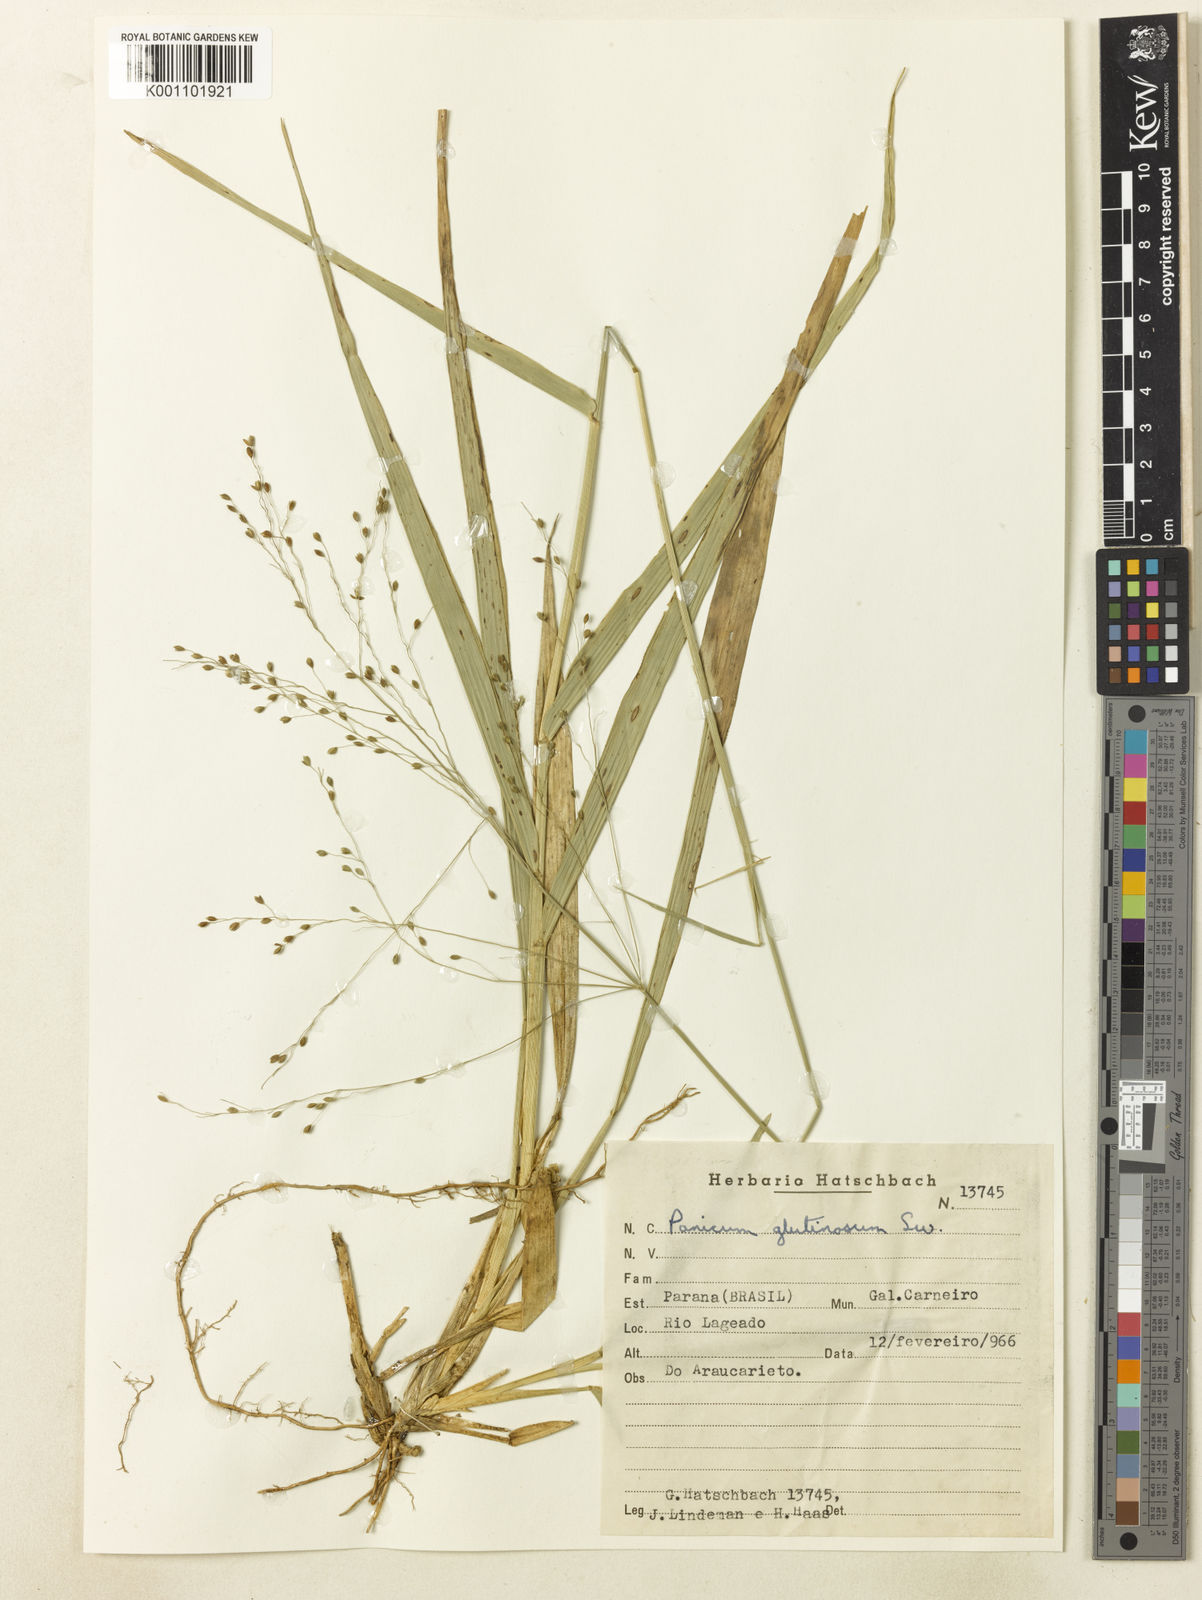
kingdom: Plantae
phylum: Tracheophyta
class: Liliopsida
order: Poales
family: Poaceae
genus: Homolepis
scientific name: Homolepis glutinosa
